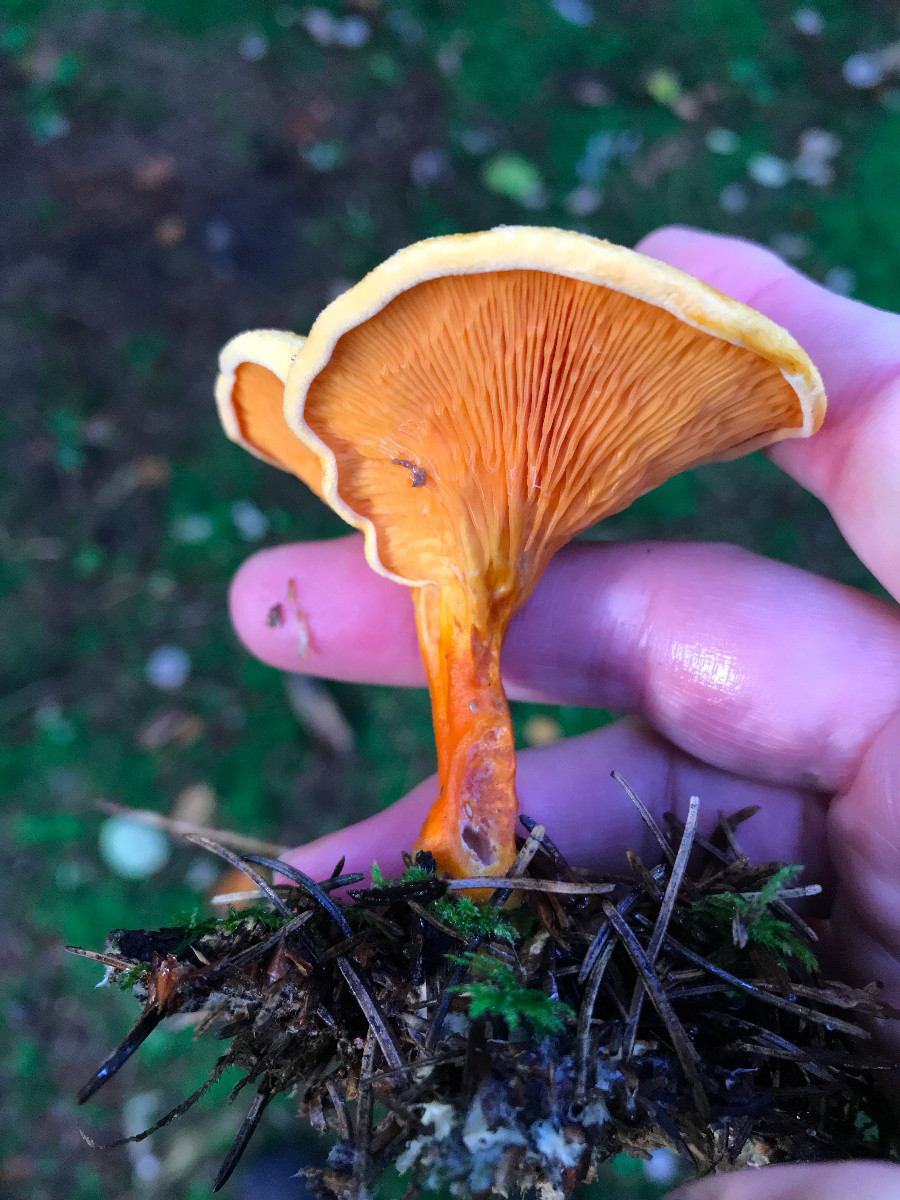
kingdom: Fungi
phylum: Basidiomycota
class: Agaricomycetes
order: Boletales
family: Hygrophoropsidaceae
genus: Hygrophoropsis
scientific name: Hygrophoropsis aurantiaca
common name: almindelig orangekantarel
